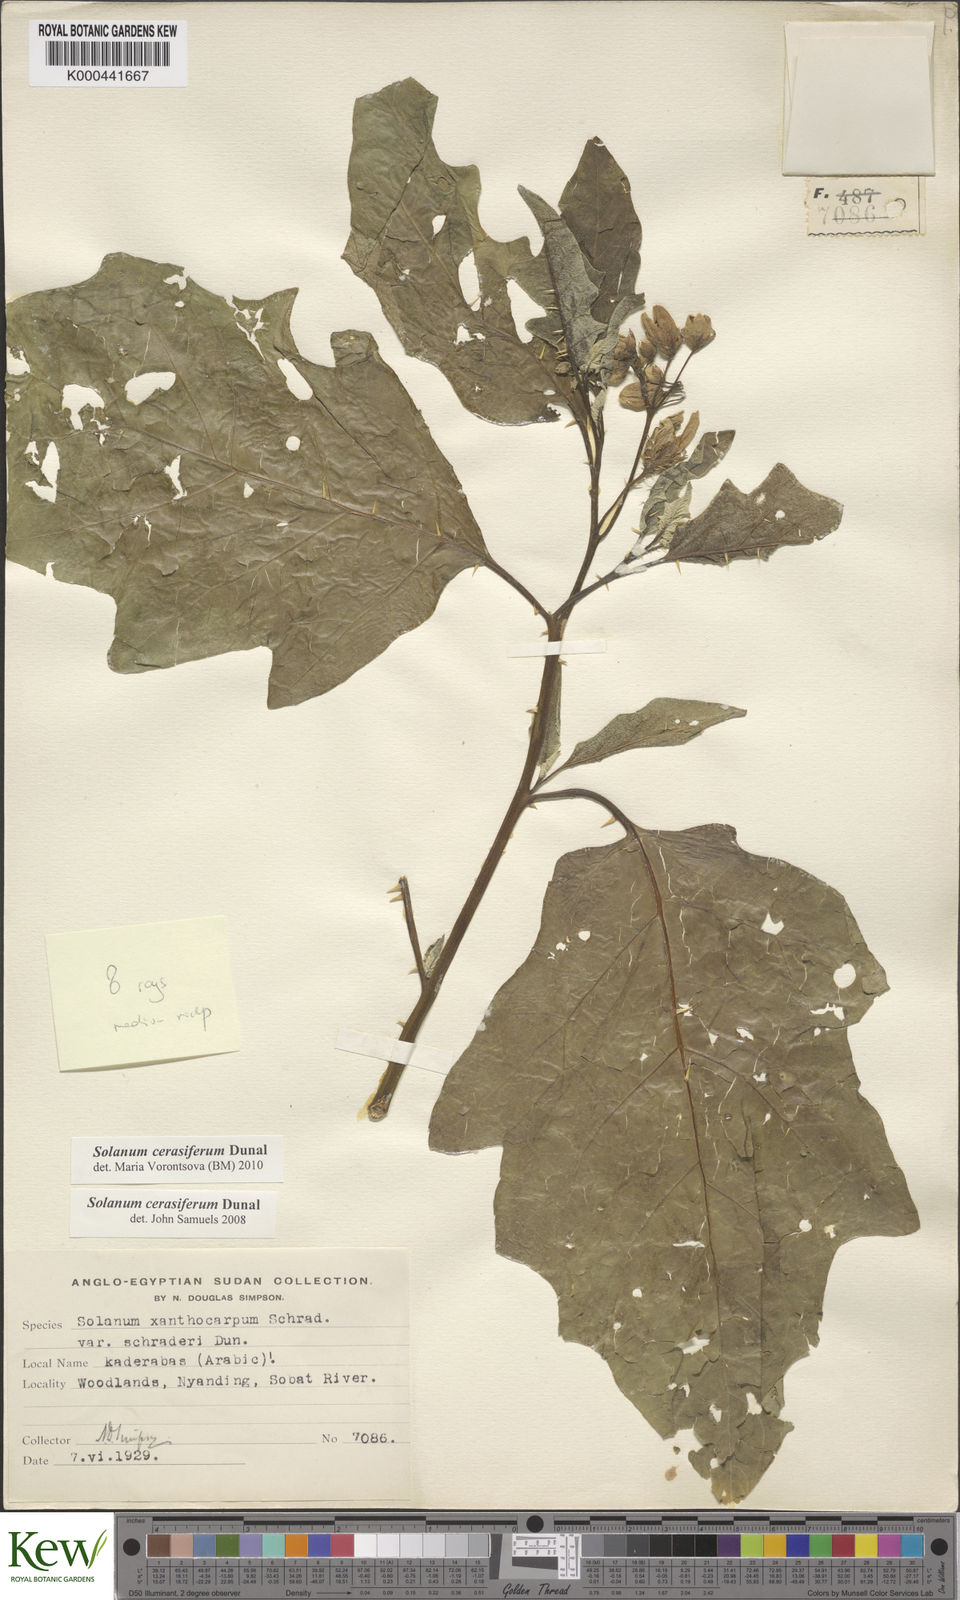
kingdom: Plantae
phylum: Tracheophyta
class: Magnoliopsida
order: Solanales
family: Solanaceae
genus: Solanum
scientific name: Solanum cerasiferum
